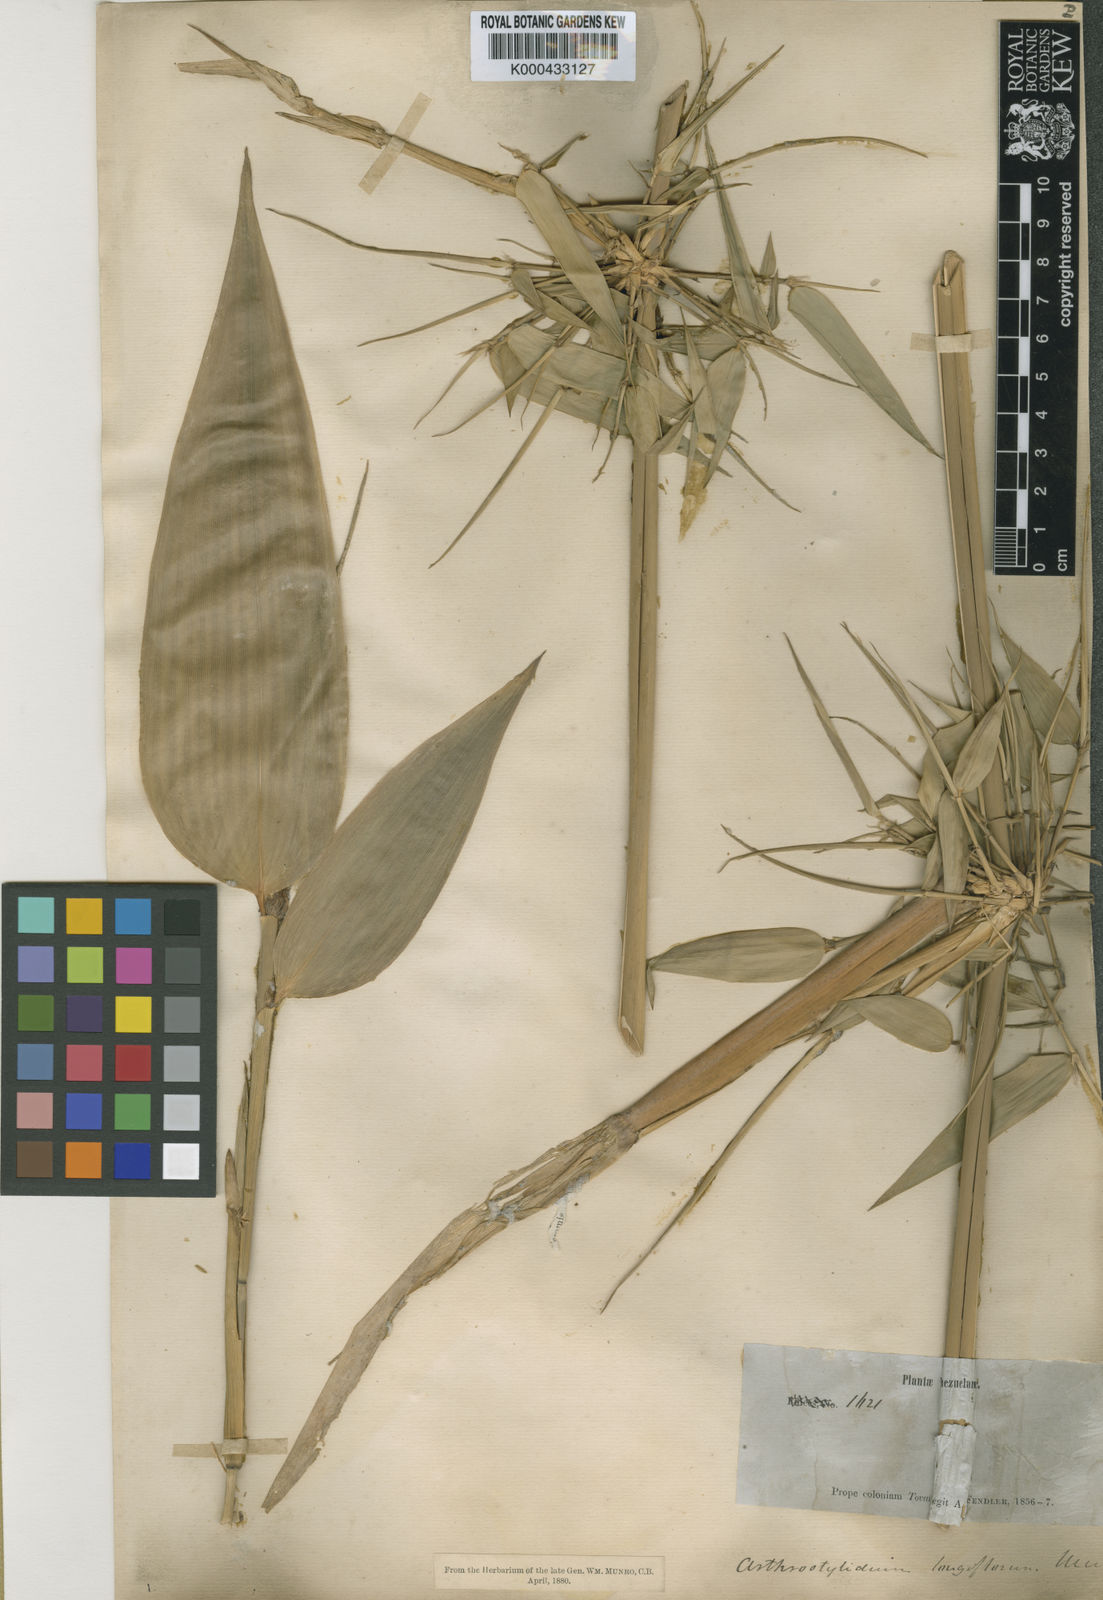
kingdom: Plantae
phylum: Tracheophyta
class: Liliopsida
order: Poales
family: Poaceae
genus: Arthrostylidium
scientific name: Arthrostylidium longiflorum
